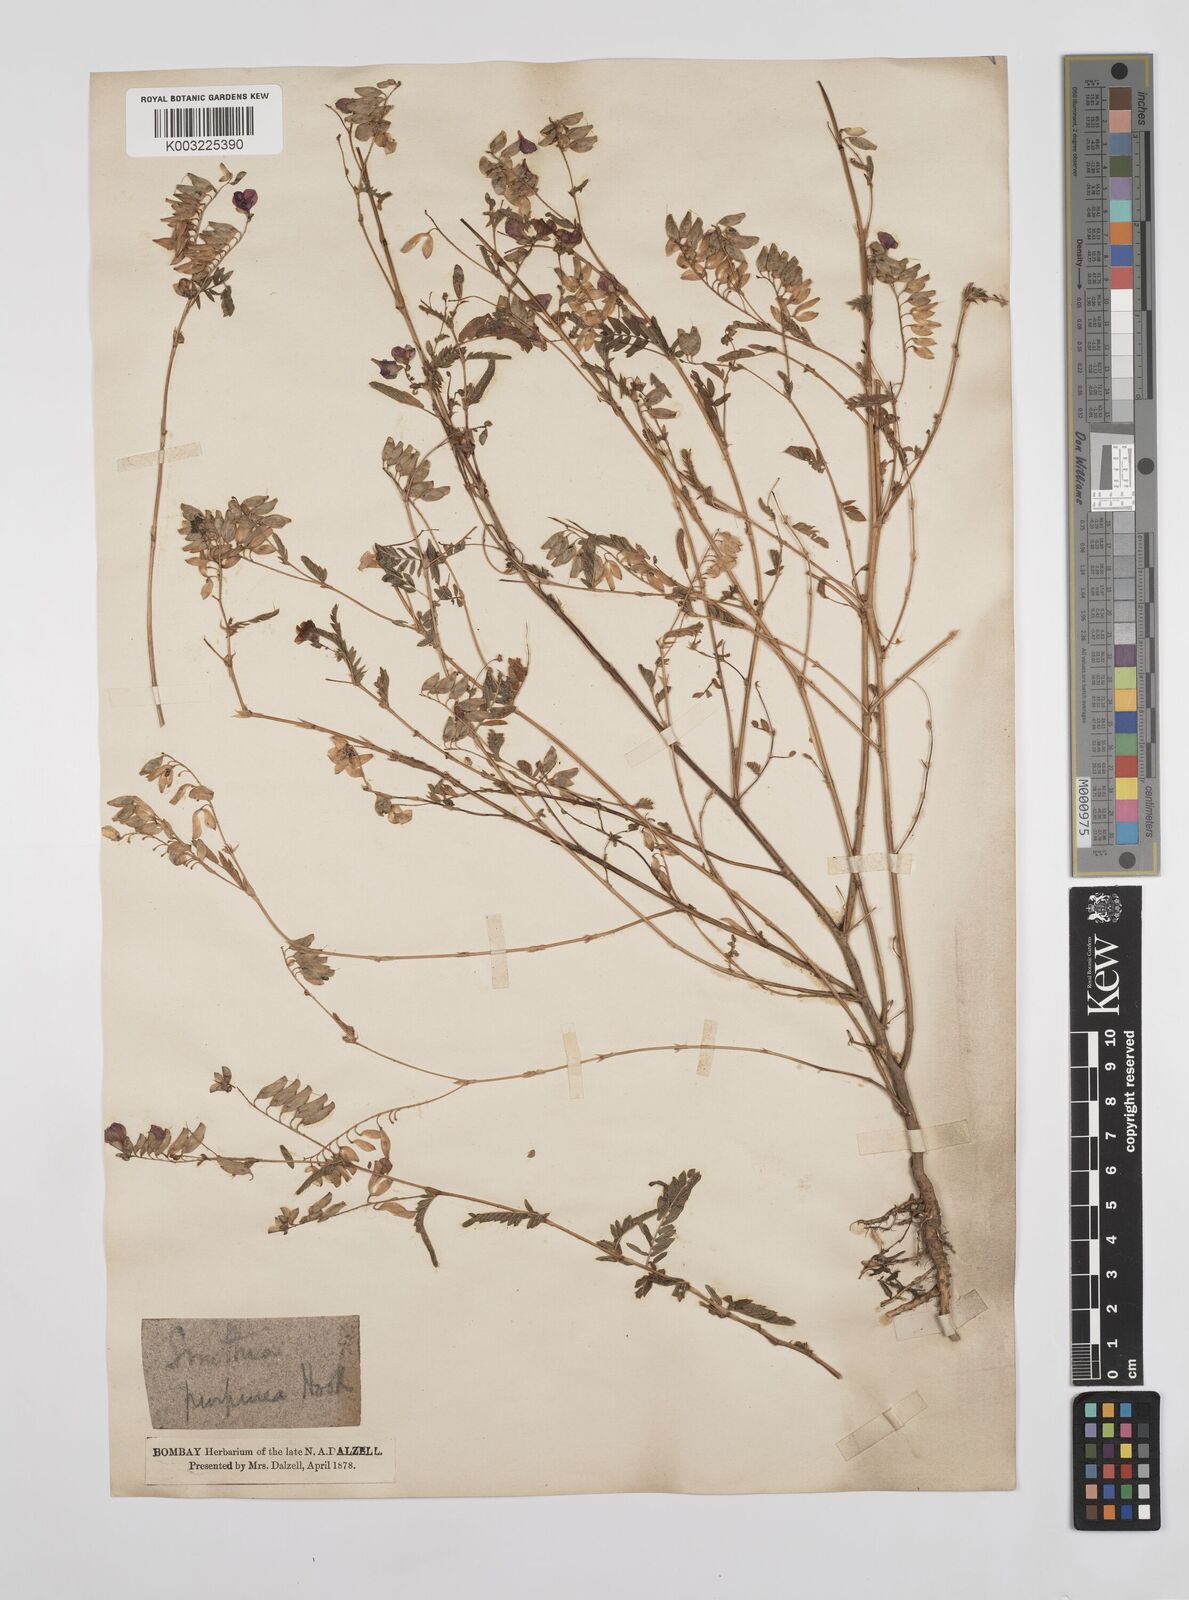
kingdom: Plantae
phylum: Tracheophyta
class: Magnoliopsida
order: Fabales
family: Fabaceae
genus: Smithia
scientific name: Smithia purpurea
